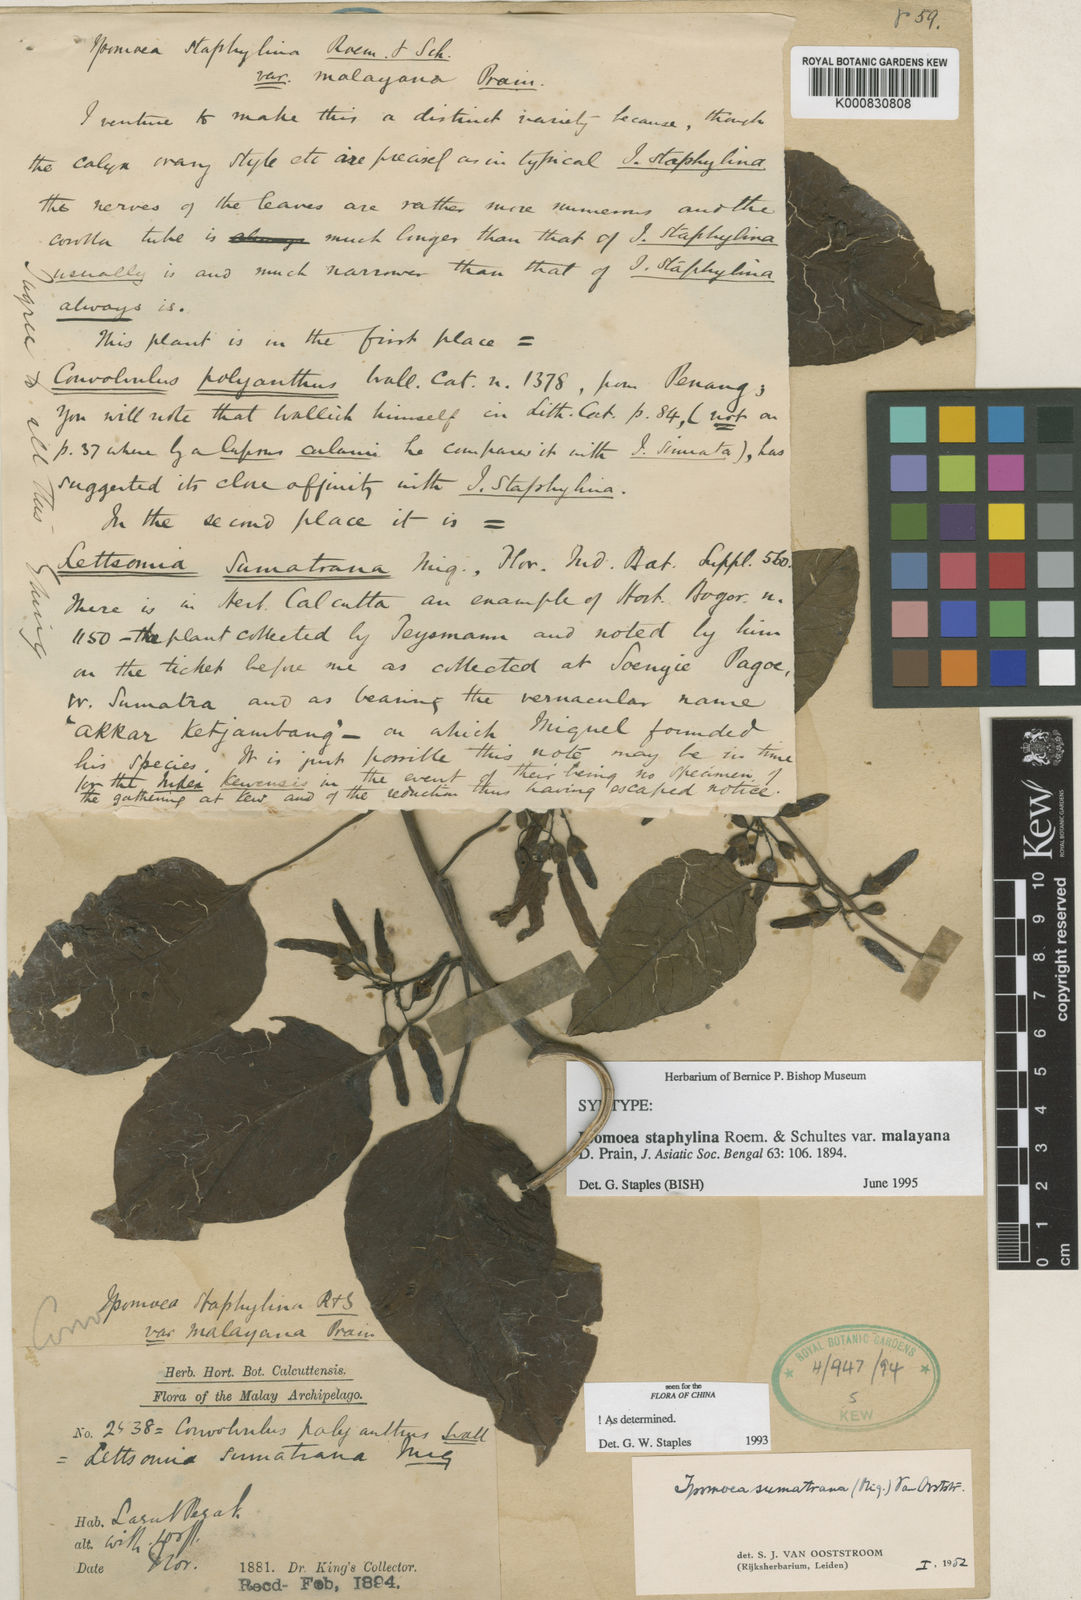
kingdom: Plantae
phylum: Tracheophyta
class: Magnoliopsida
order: Solanales
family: Convolvulaceae
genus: Ipomoea
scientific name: Ipomoea staphylina
